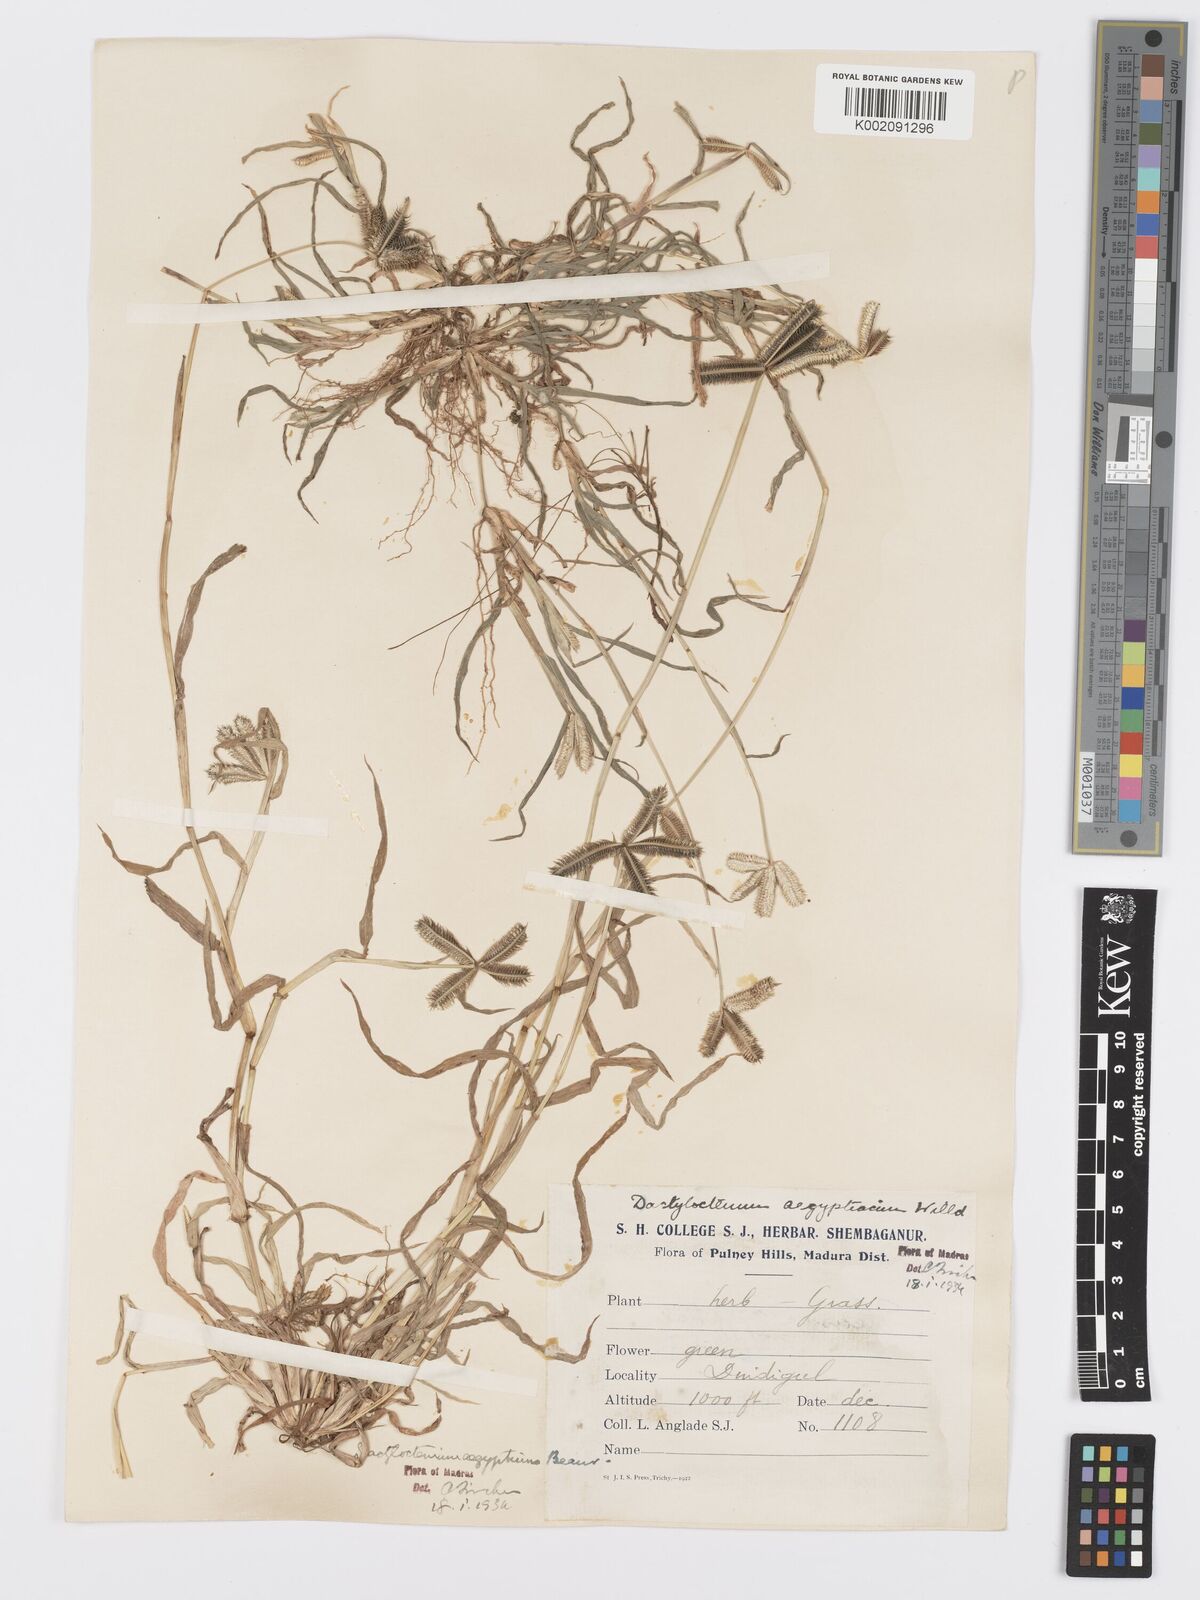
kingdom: Plantae
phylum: Tracheophyta
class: Liliopsida
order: Poales
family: Poaceae
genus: Dactyloctenium
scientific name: Dactyloctenium aegyptium
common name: Egyptian grass
